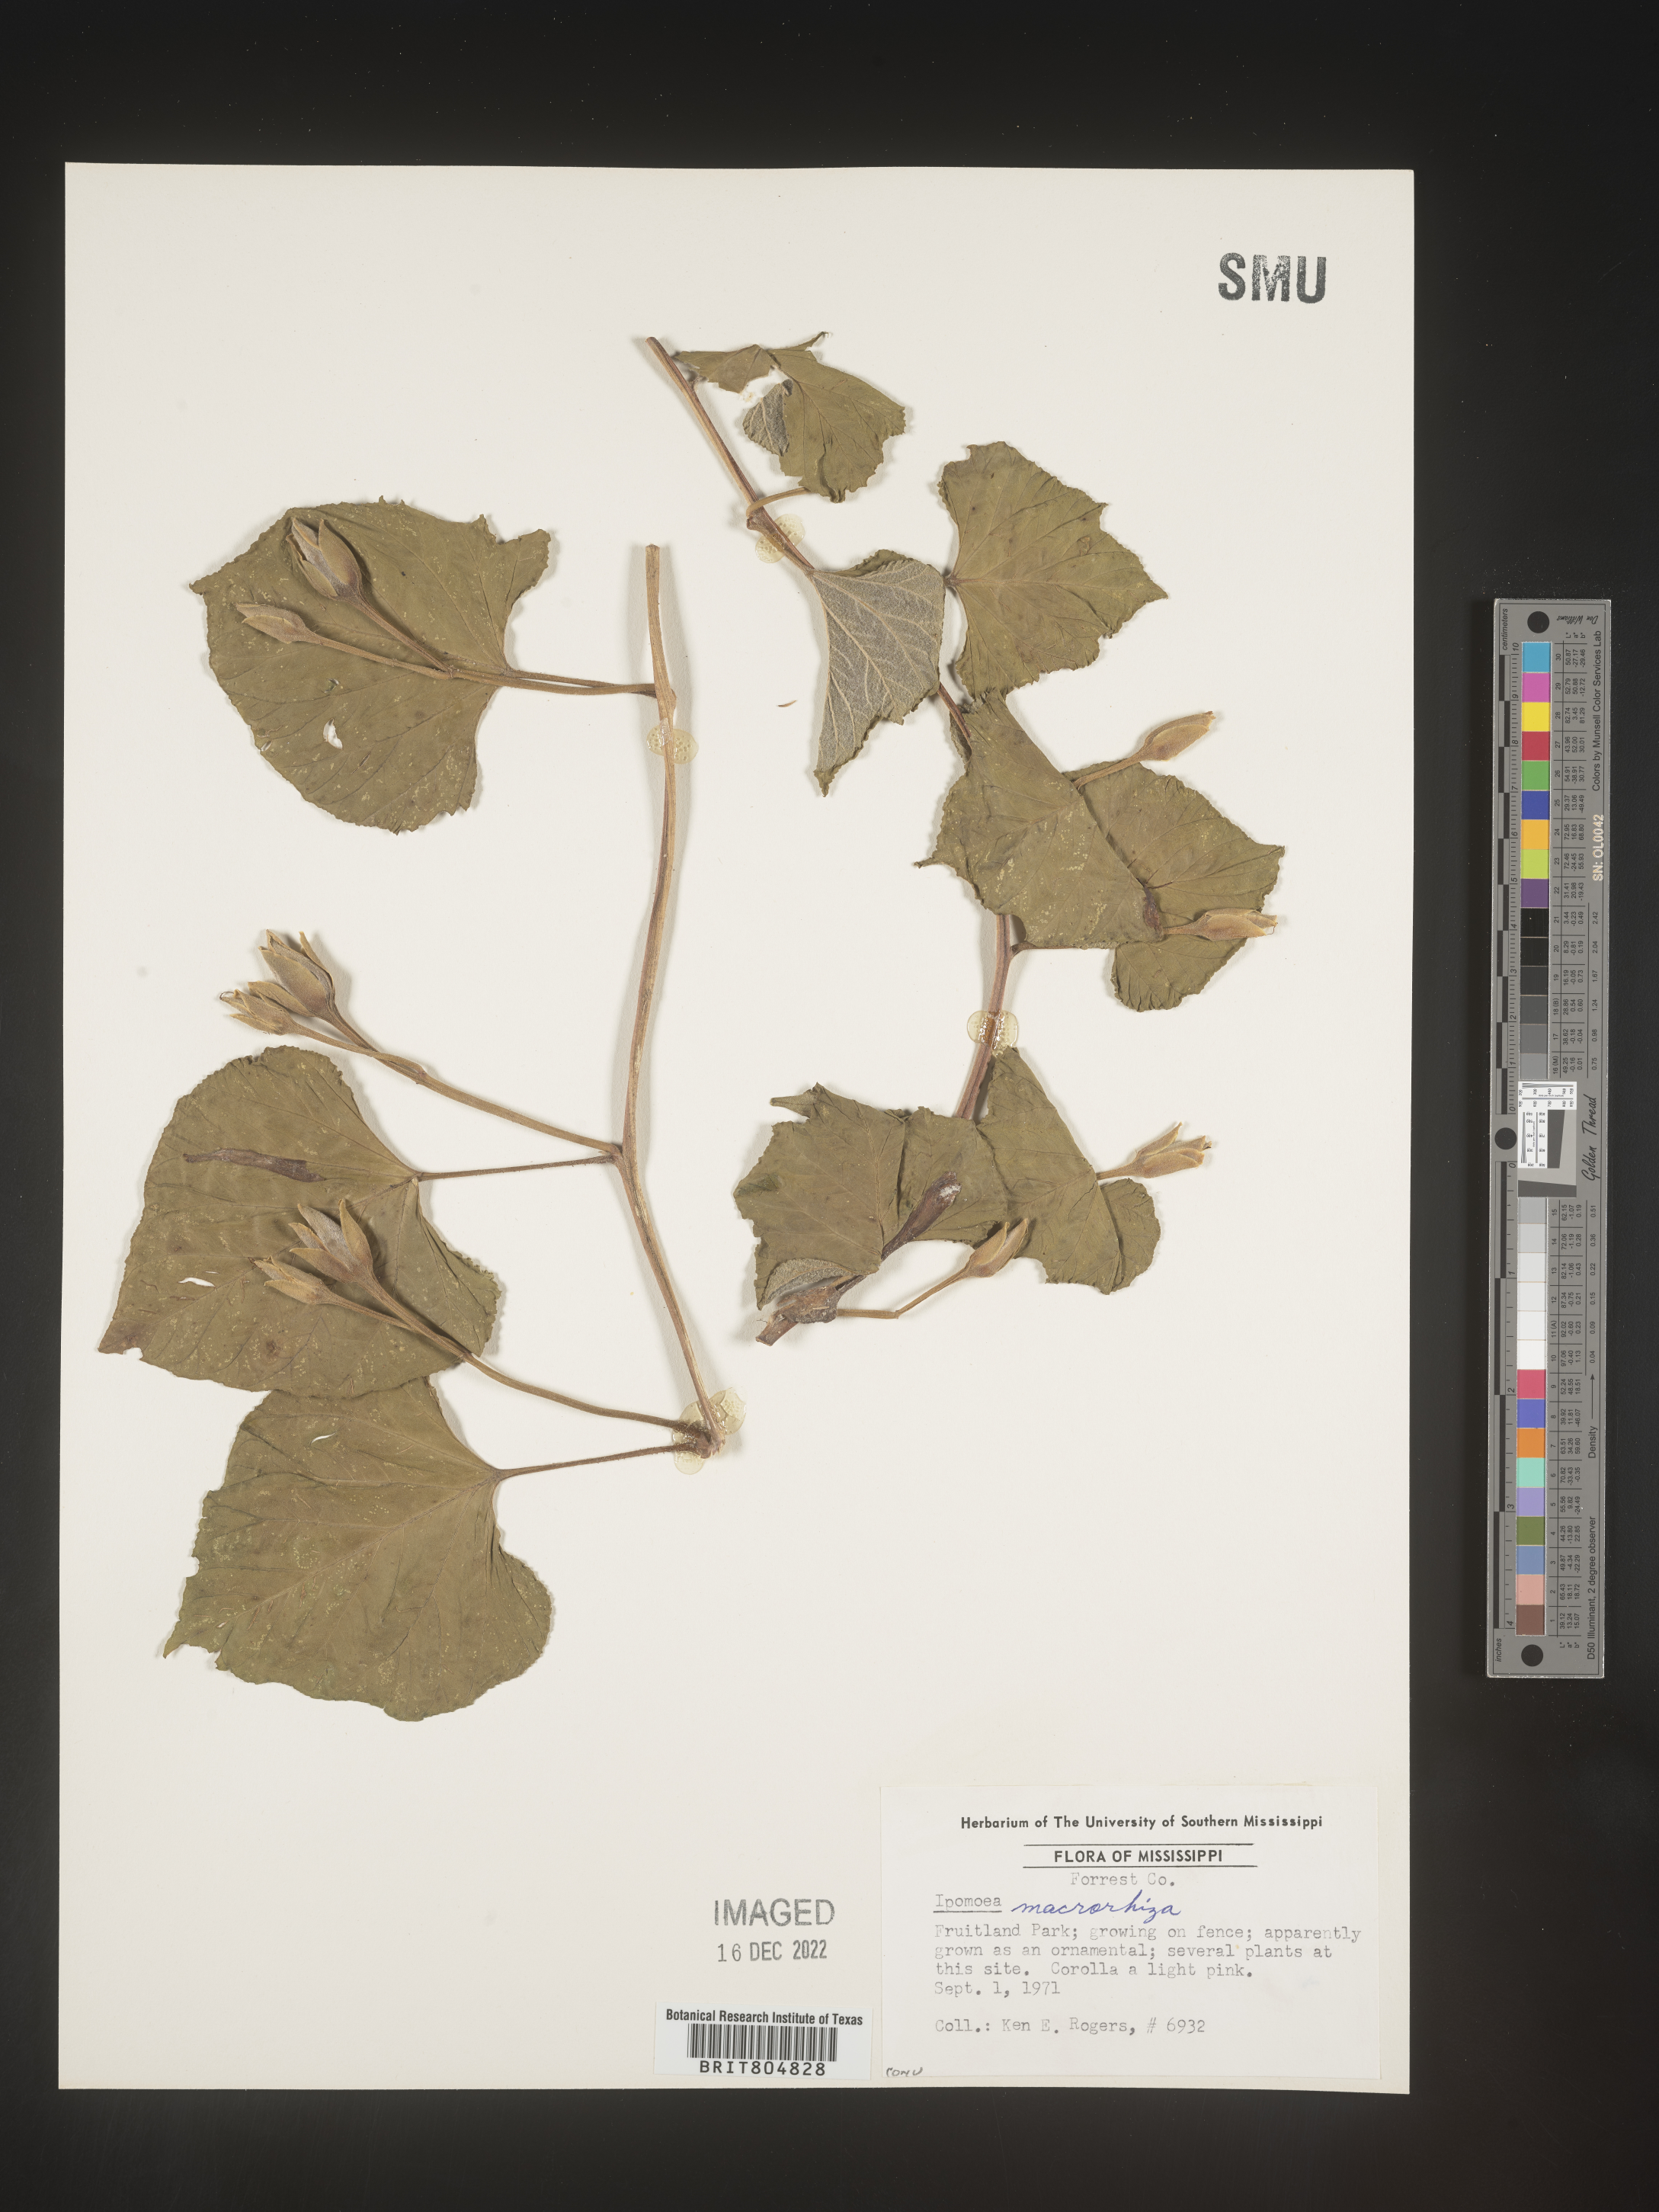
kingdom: Plantae
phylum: Tracheophyta
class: Magnoliopsida
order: Solanales
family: Convolvulaceae
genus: Ipomoea
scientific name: Ipomoea macrorhiza
